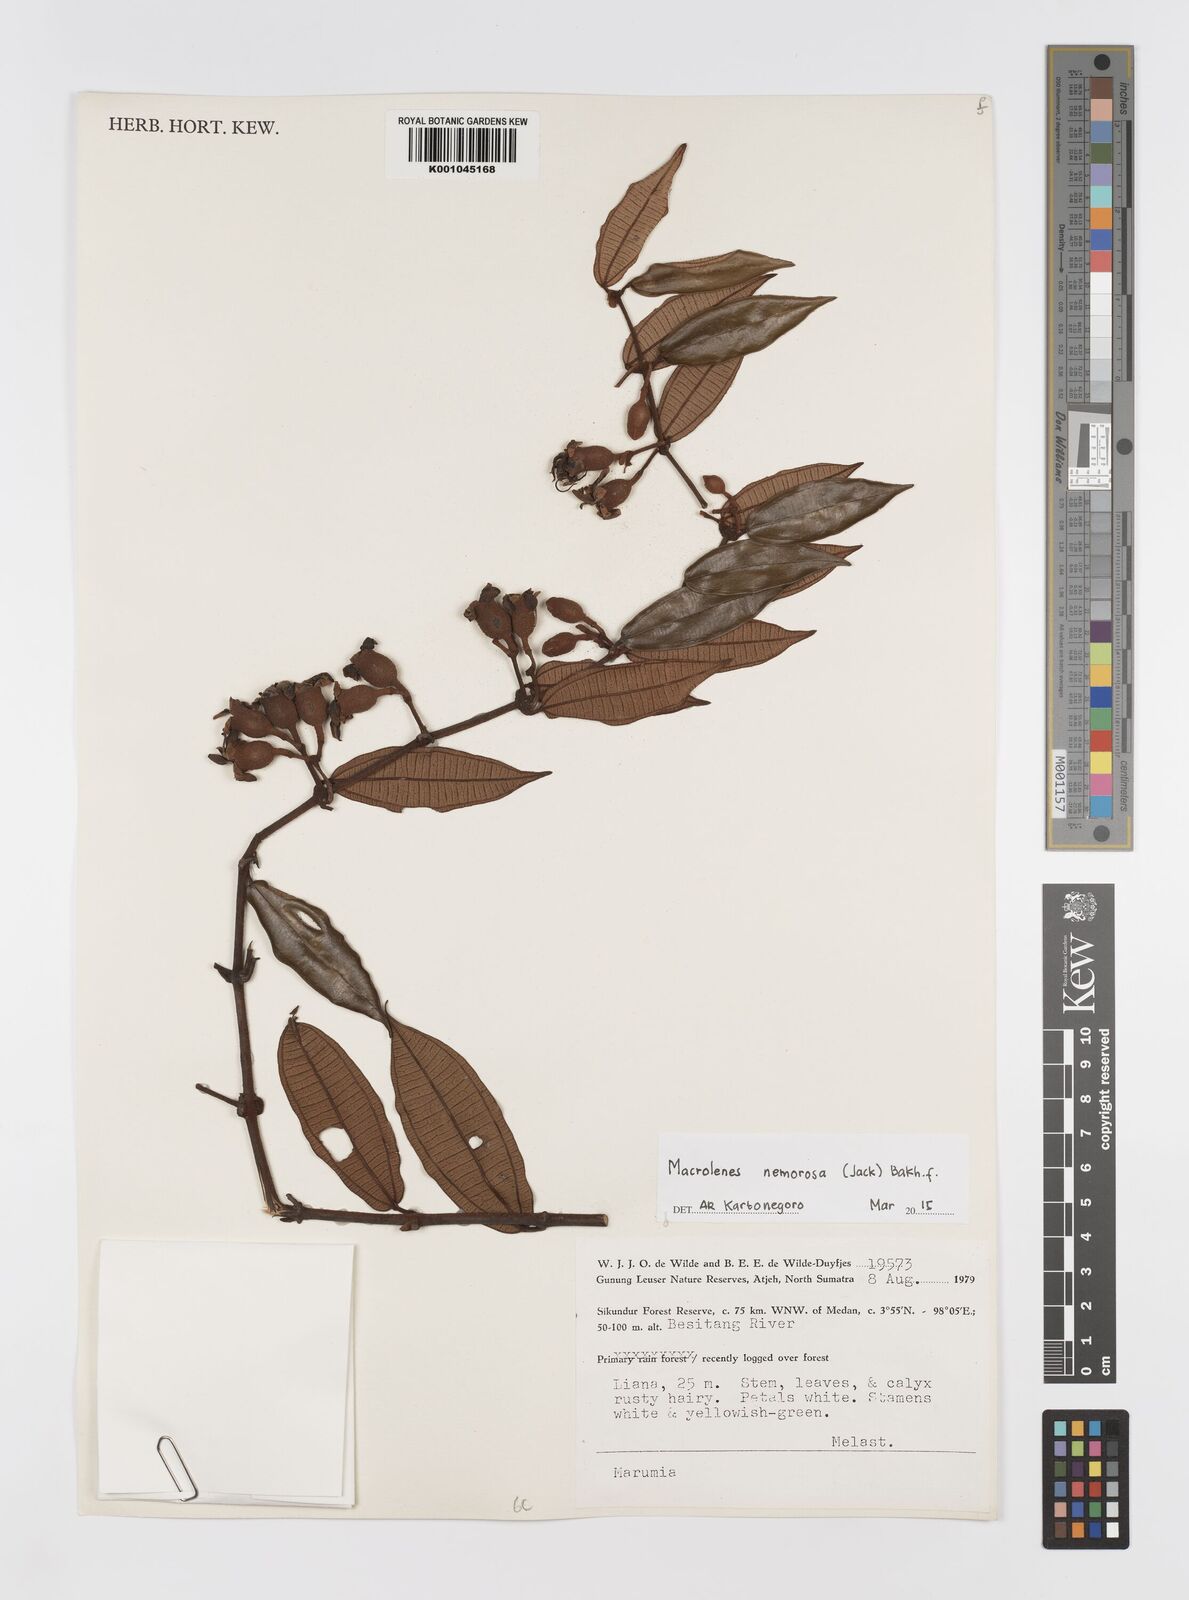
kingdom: Plantae
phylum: Tracheophyta
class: Magnoliopsida
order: Myrtales
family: Melastomataceae
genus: Macrolenes
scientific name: Macrolenes nemorosa
